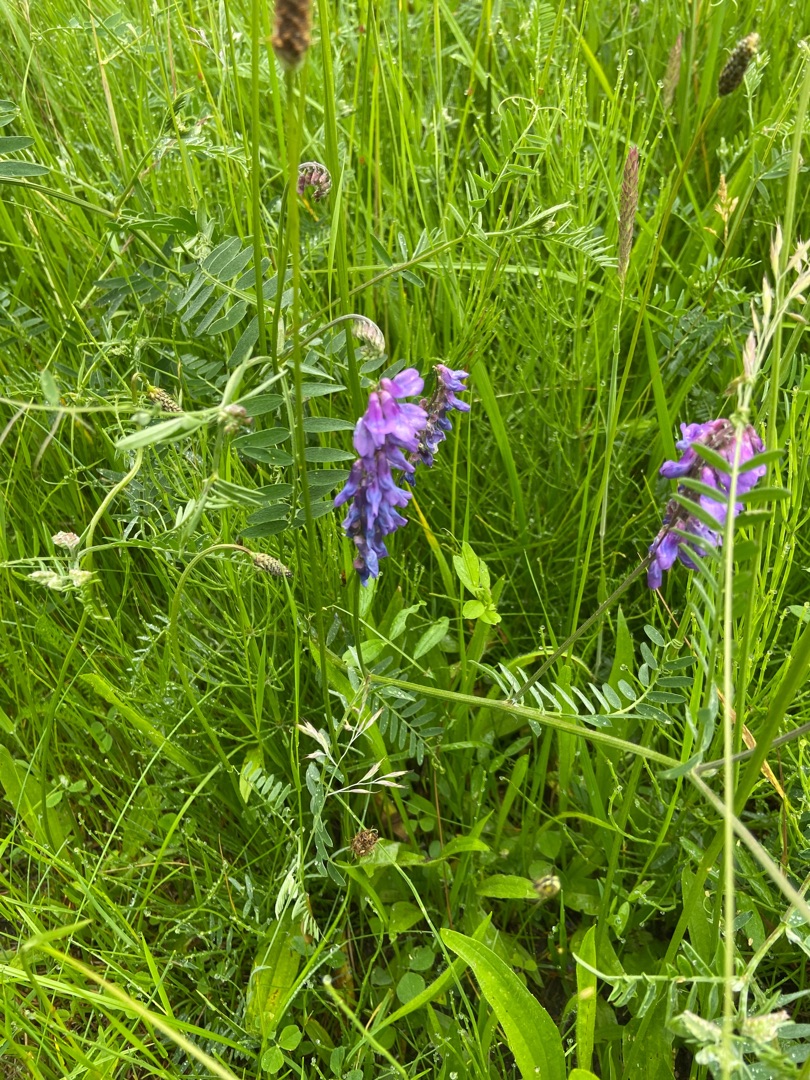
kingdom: Plantae
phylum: Tracheophyta
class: Magnoliopsida
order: Fabales
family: Fabaceae
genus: Vicia
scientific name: Vicia cracca
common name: Muse-vikke
